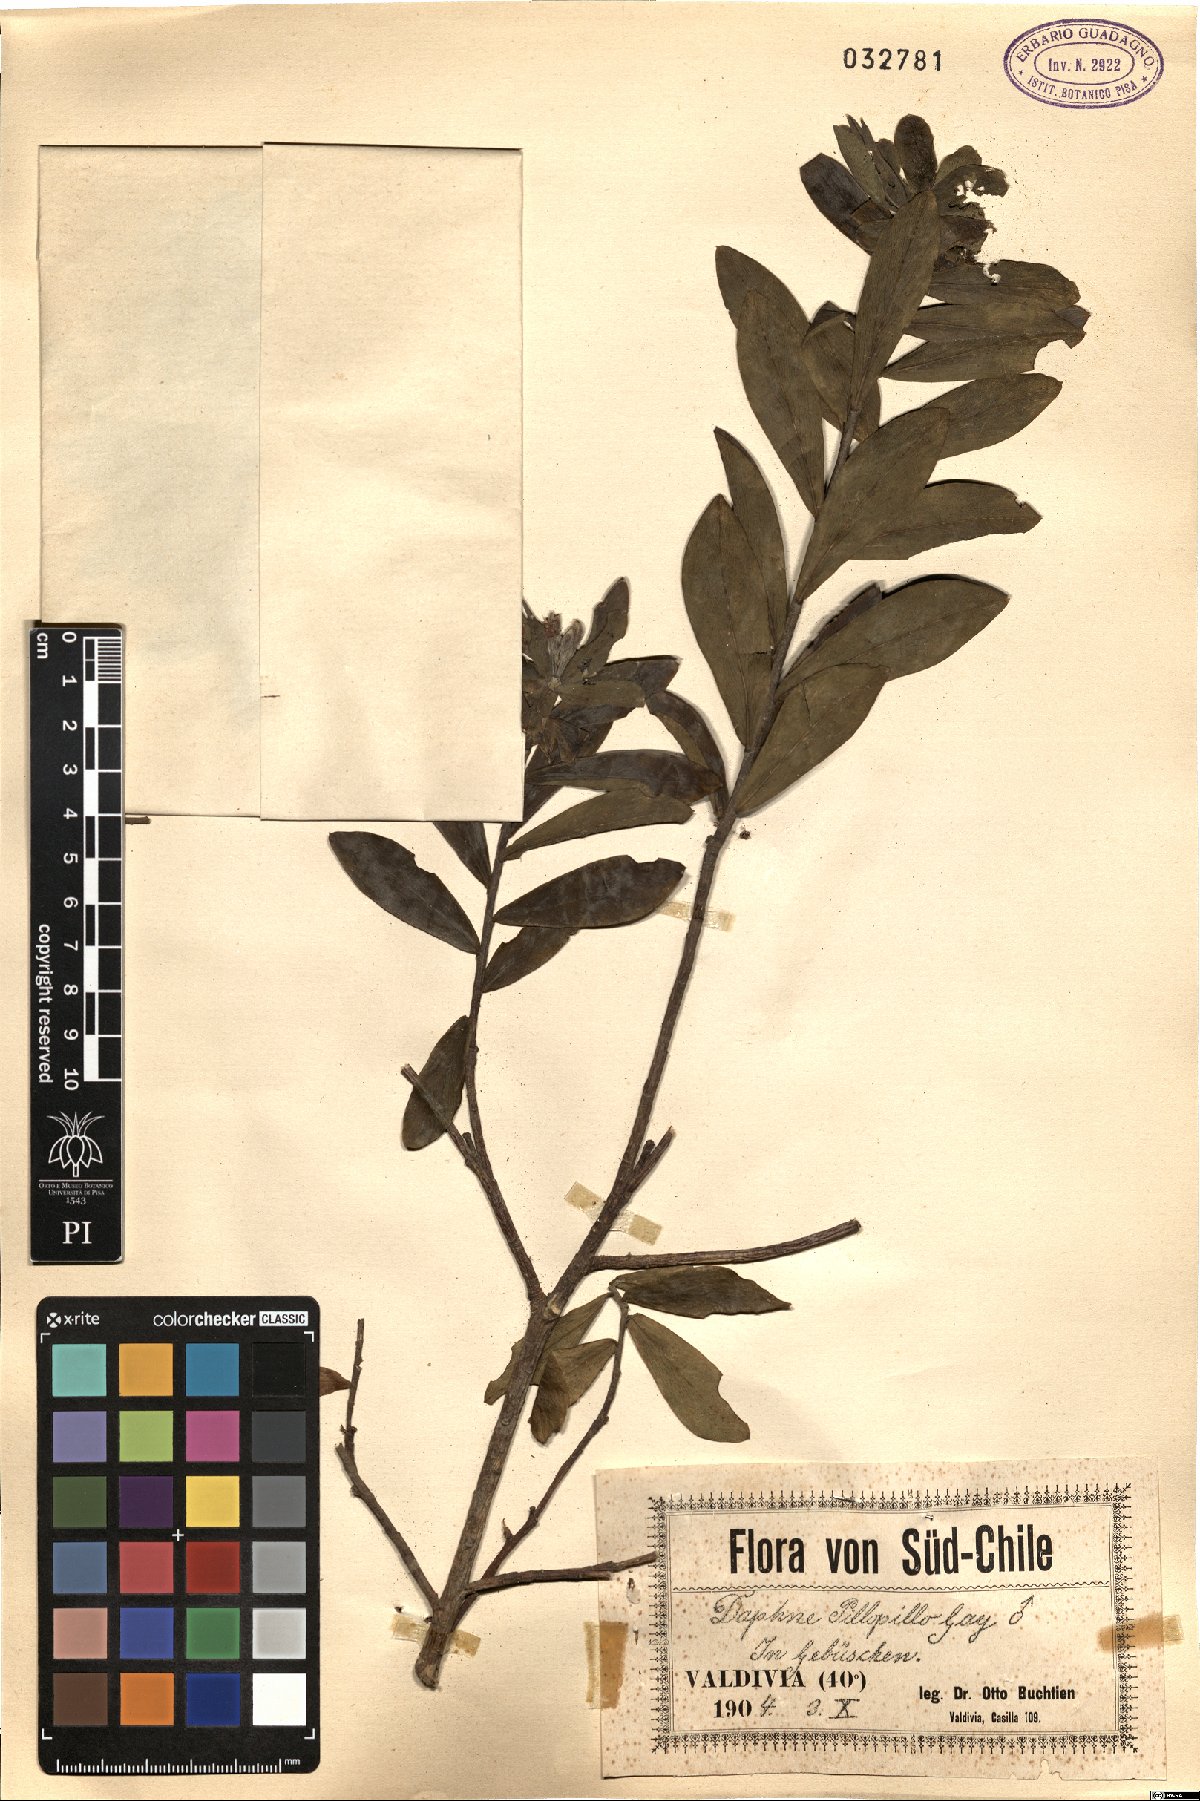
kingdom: Plantae
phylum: Tracheophyta
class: Magnoliopsida
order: Malvales
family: Thymelaeaceae
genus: Ovidia
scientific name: Ovidia pillo-pillo
